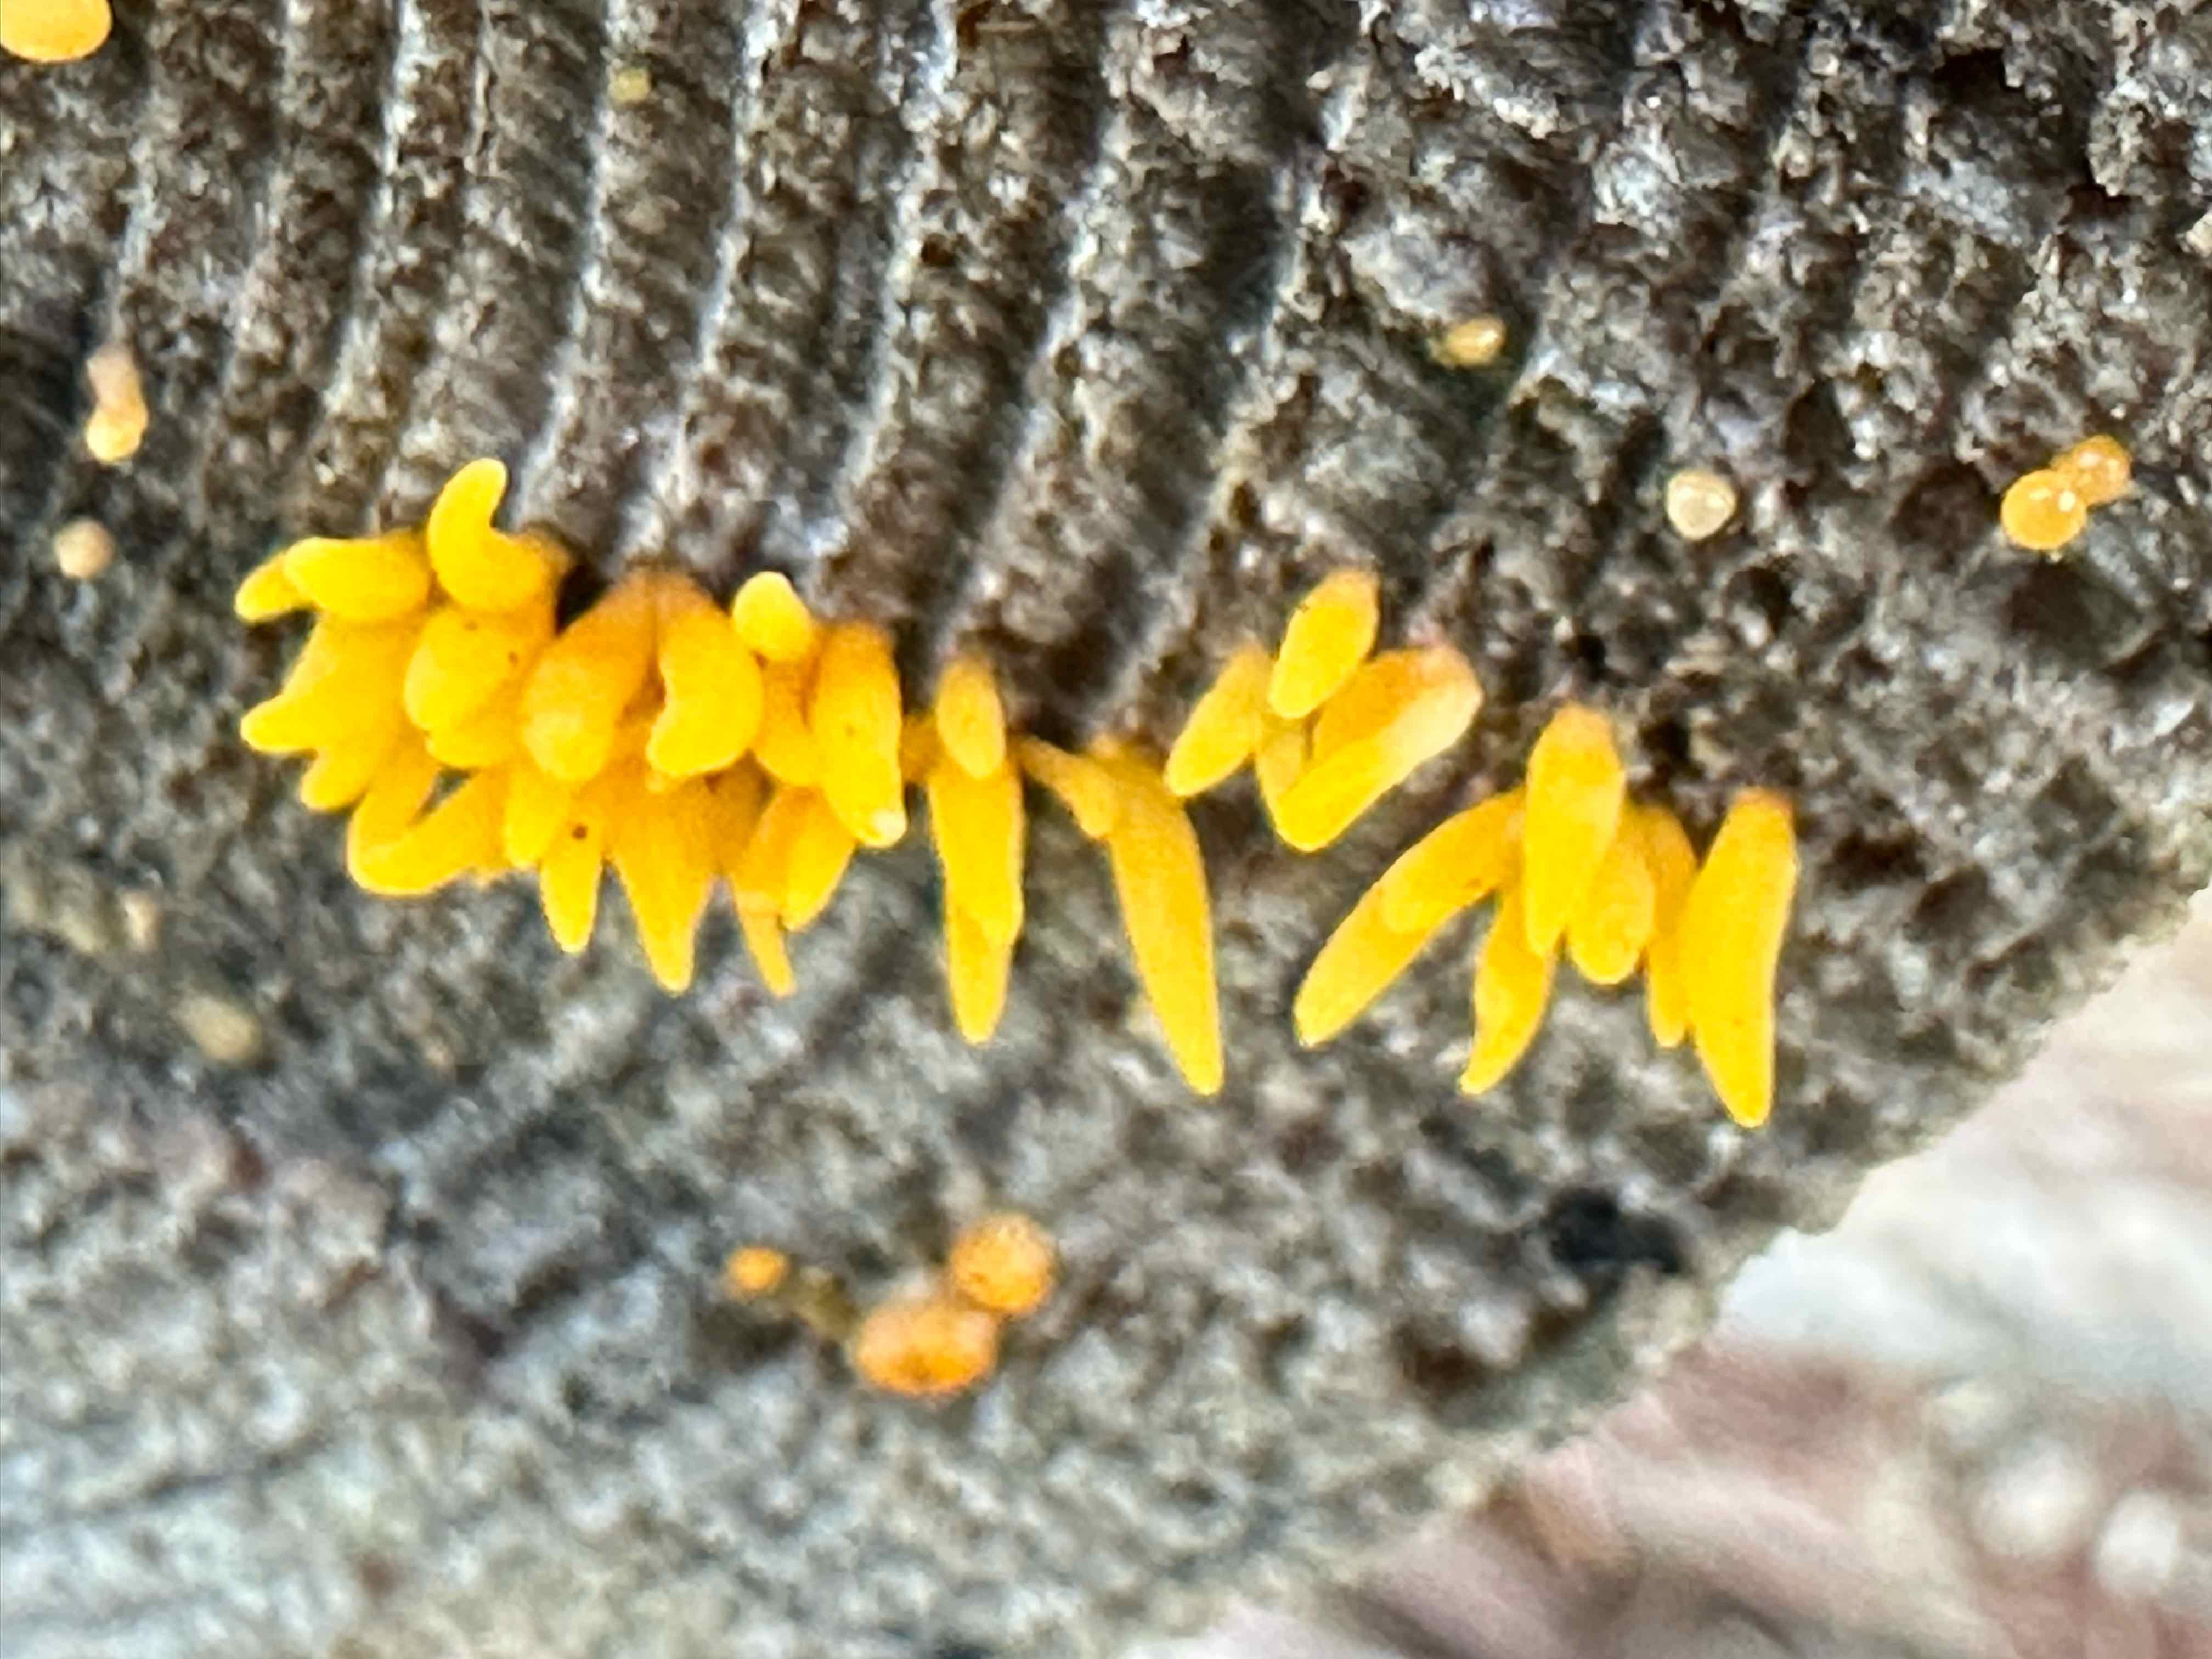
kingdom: Fungi
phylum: Basidiomycota
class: Dacrymycetes
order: Dacrymycetales
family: Dacrymycetaceae
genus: Calocera
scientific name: Calocera
